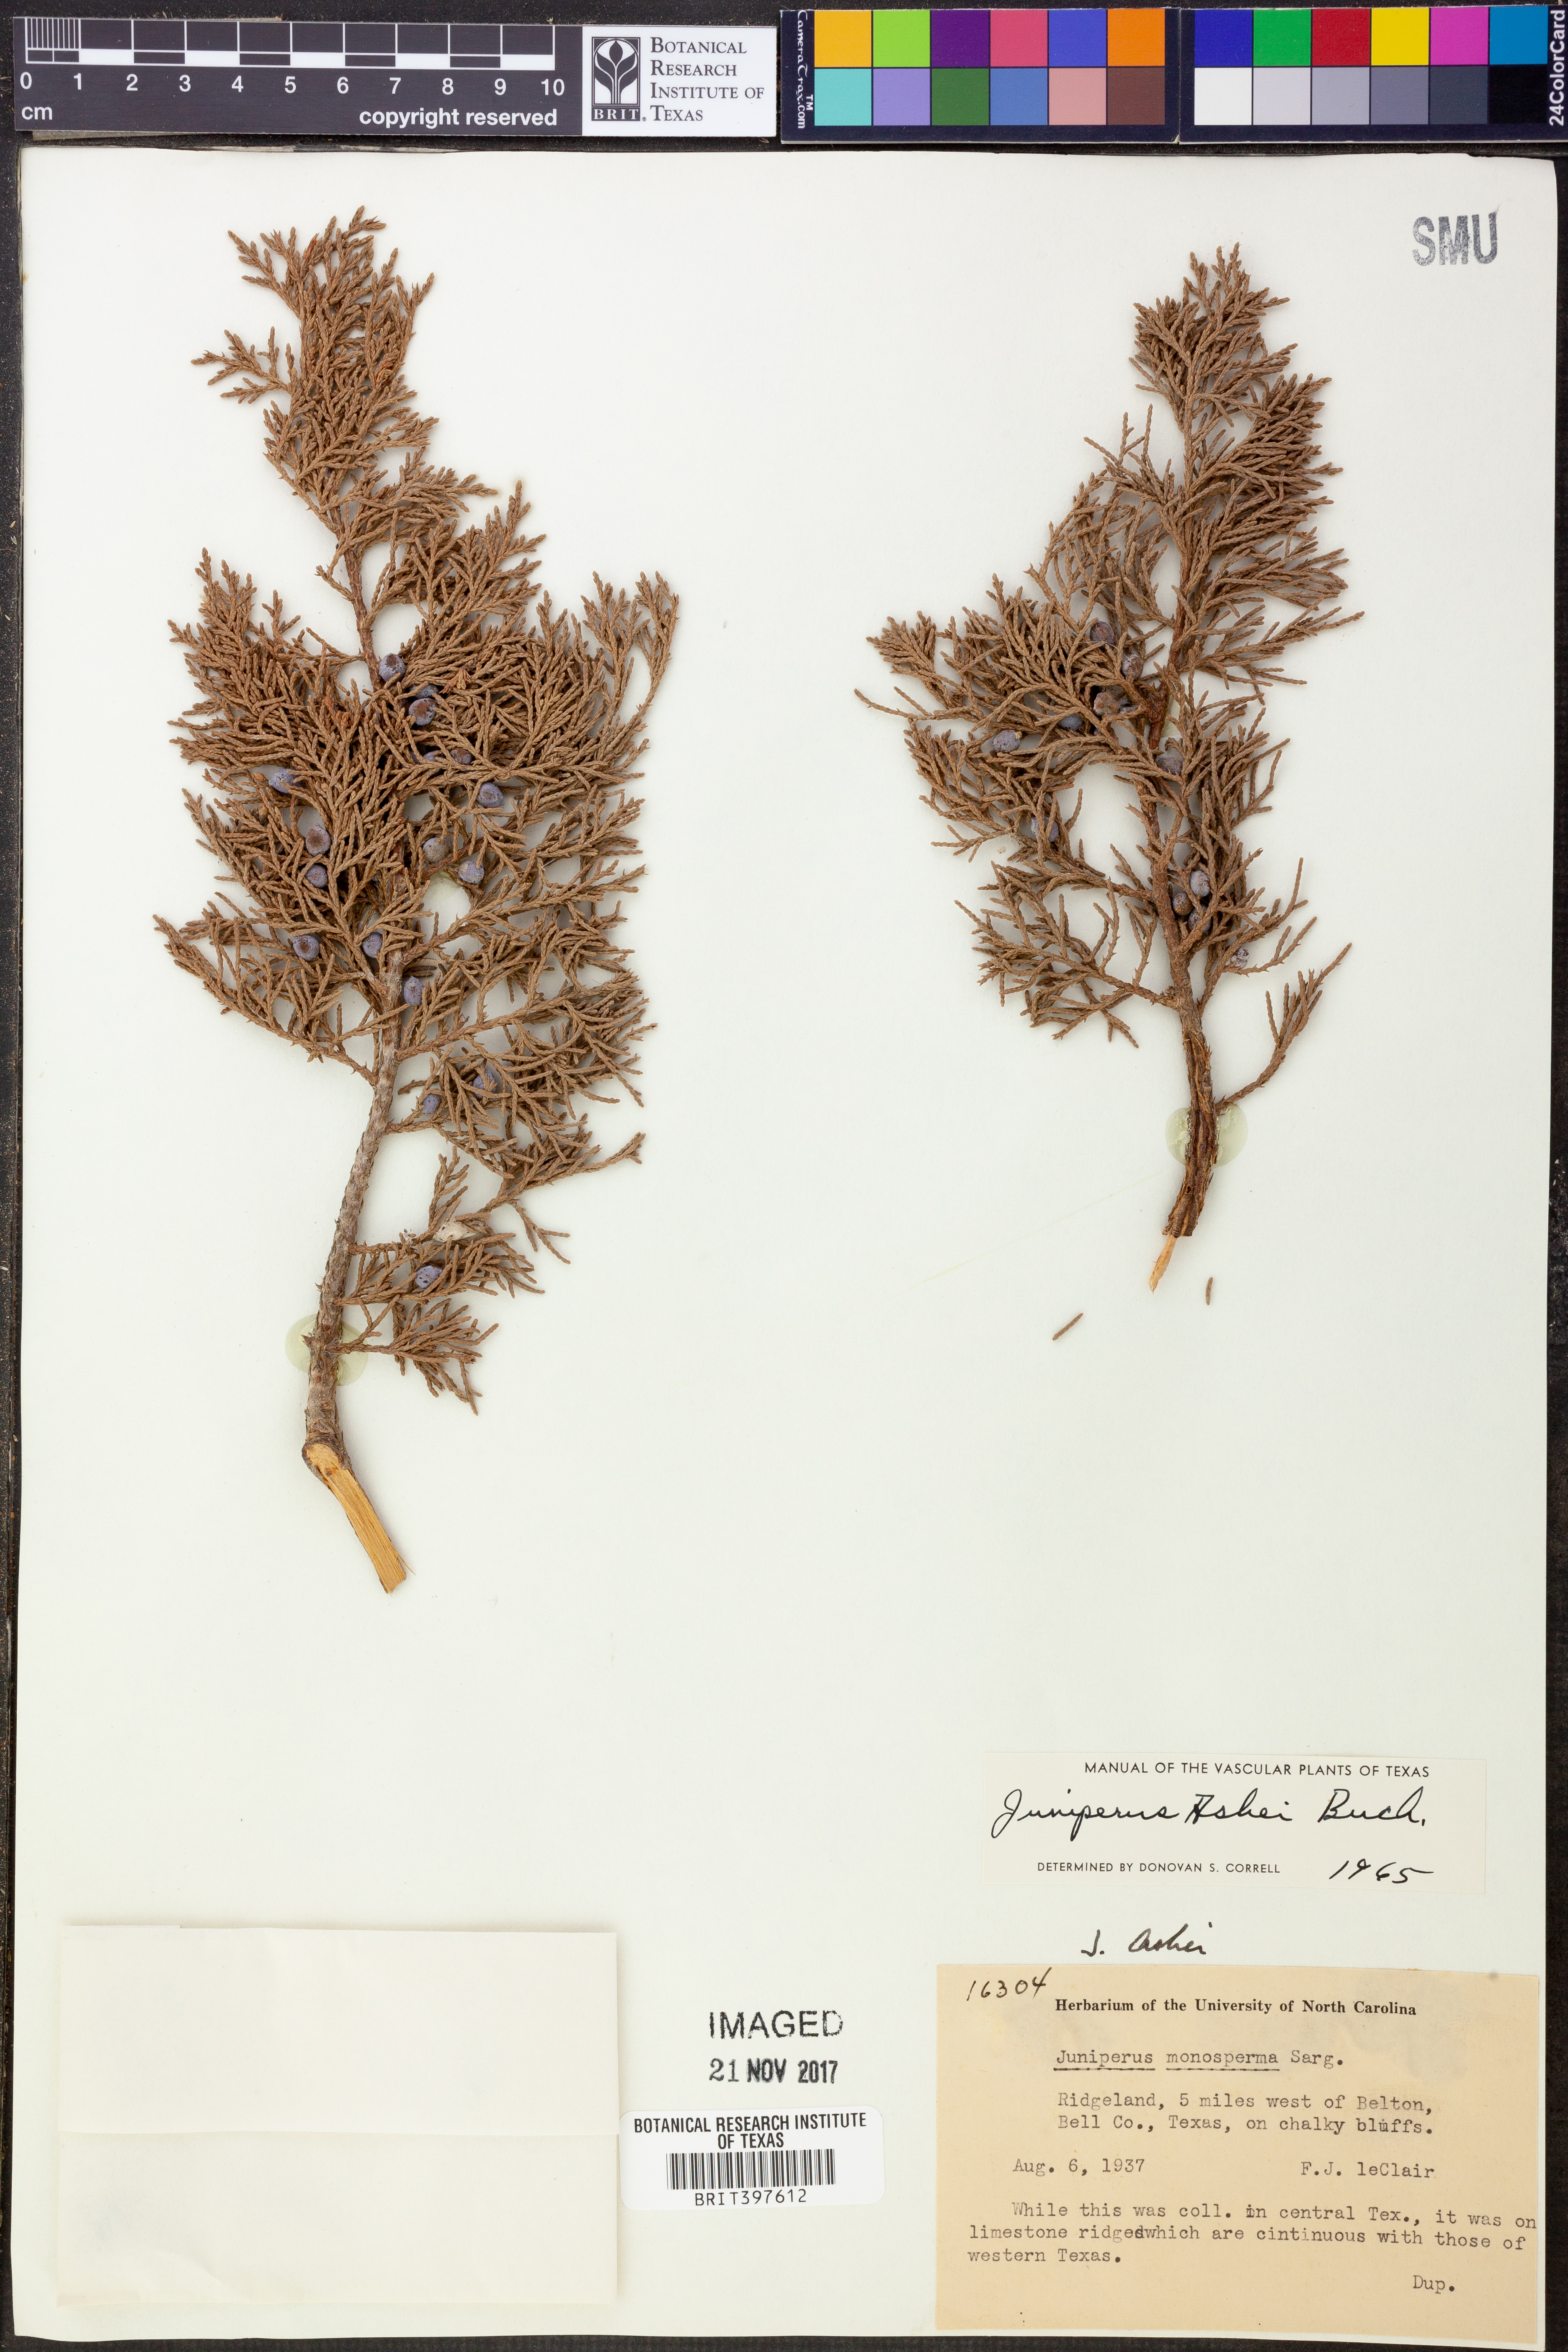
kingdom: Plantae
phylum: Tracheophyta
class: Pinopsida
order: Pinales
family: Cupressaceae
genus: Juniperus
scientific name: Juniperus ashei
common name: Mexican juniper
